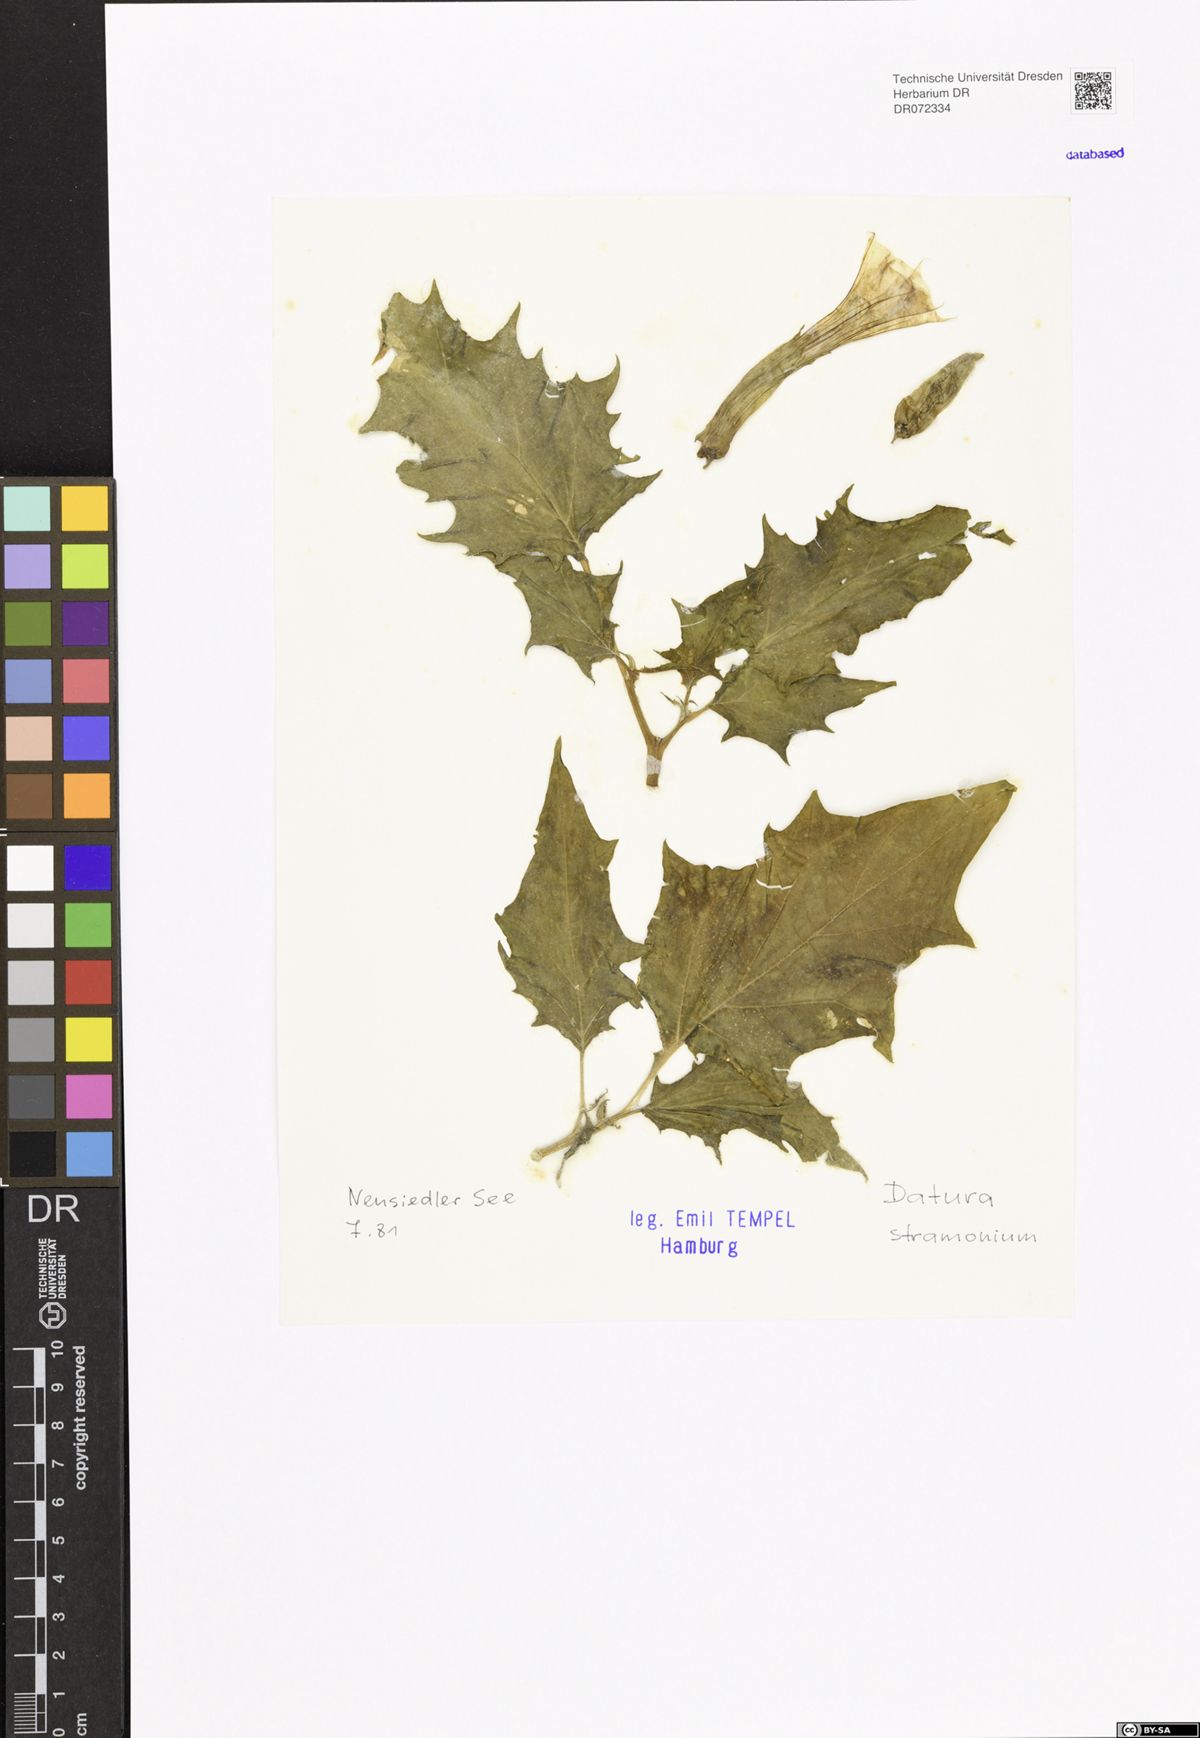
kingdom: Plantae
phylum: Tracheophyta
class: Magnoliopsida
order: Solanales
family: Solanaceae
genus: Datura
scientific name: Datura stramonium
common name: Thorn-apple
